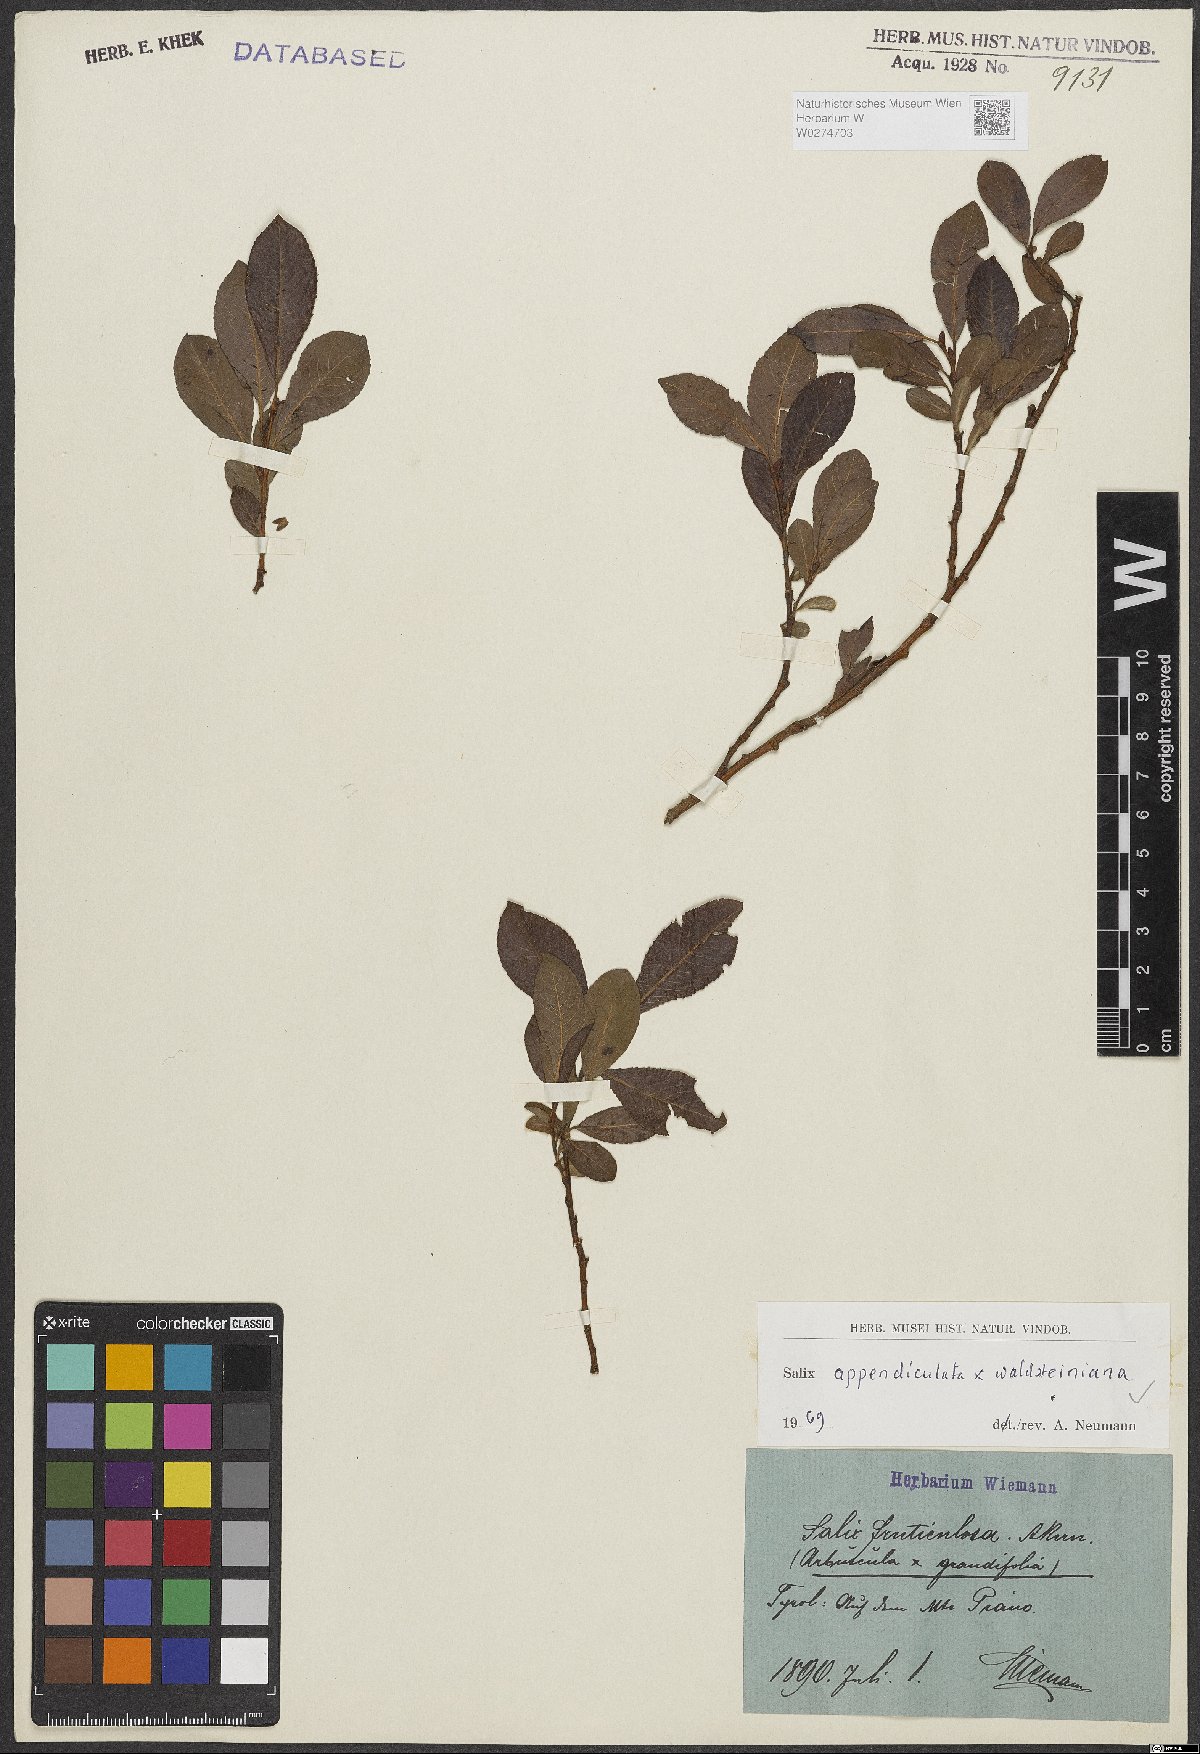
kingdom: Plantae
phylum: Tracheophyta
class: Magnoliopsida
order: Malpighiales
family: Salicaceae
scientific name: Salicaceae
